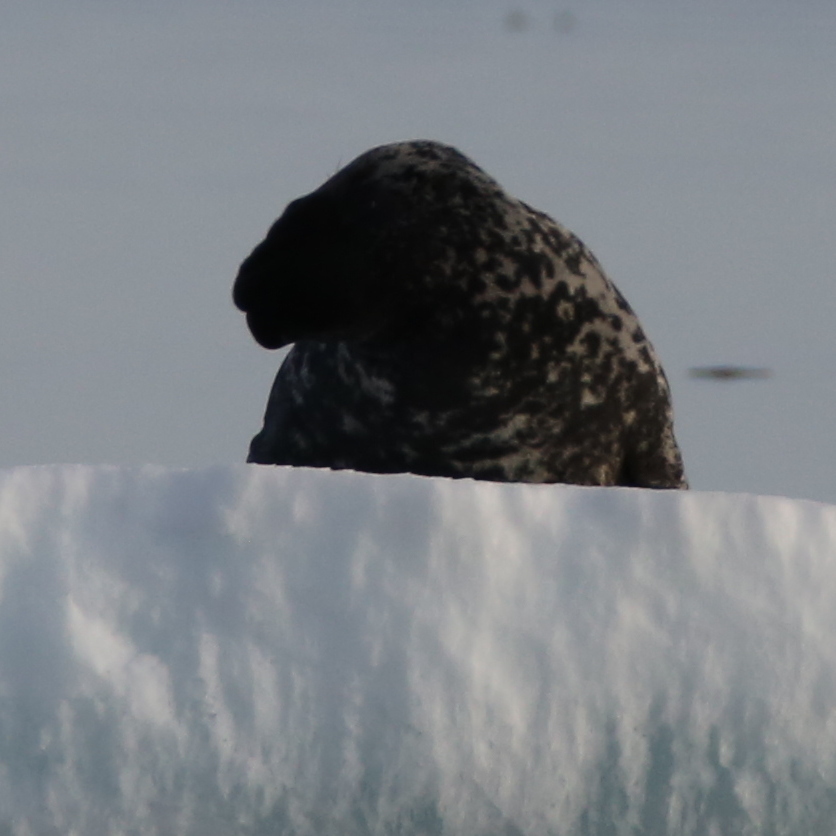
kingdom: Animalia
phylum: Chordata
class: Mammalia
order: Carnivora
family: Phocidae
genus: Cystophora
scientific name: Cystophora cristata
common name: Hooded Seal
